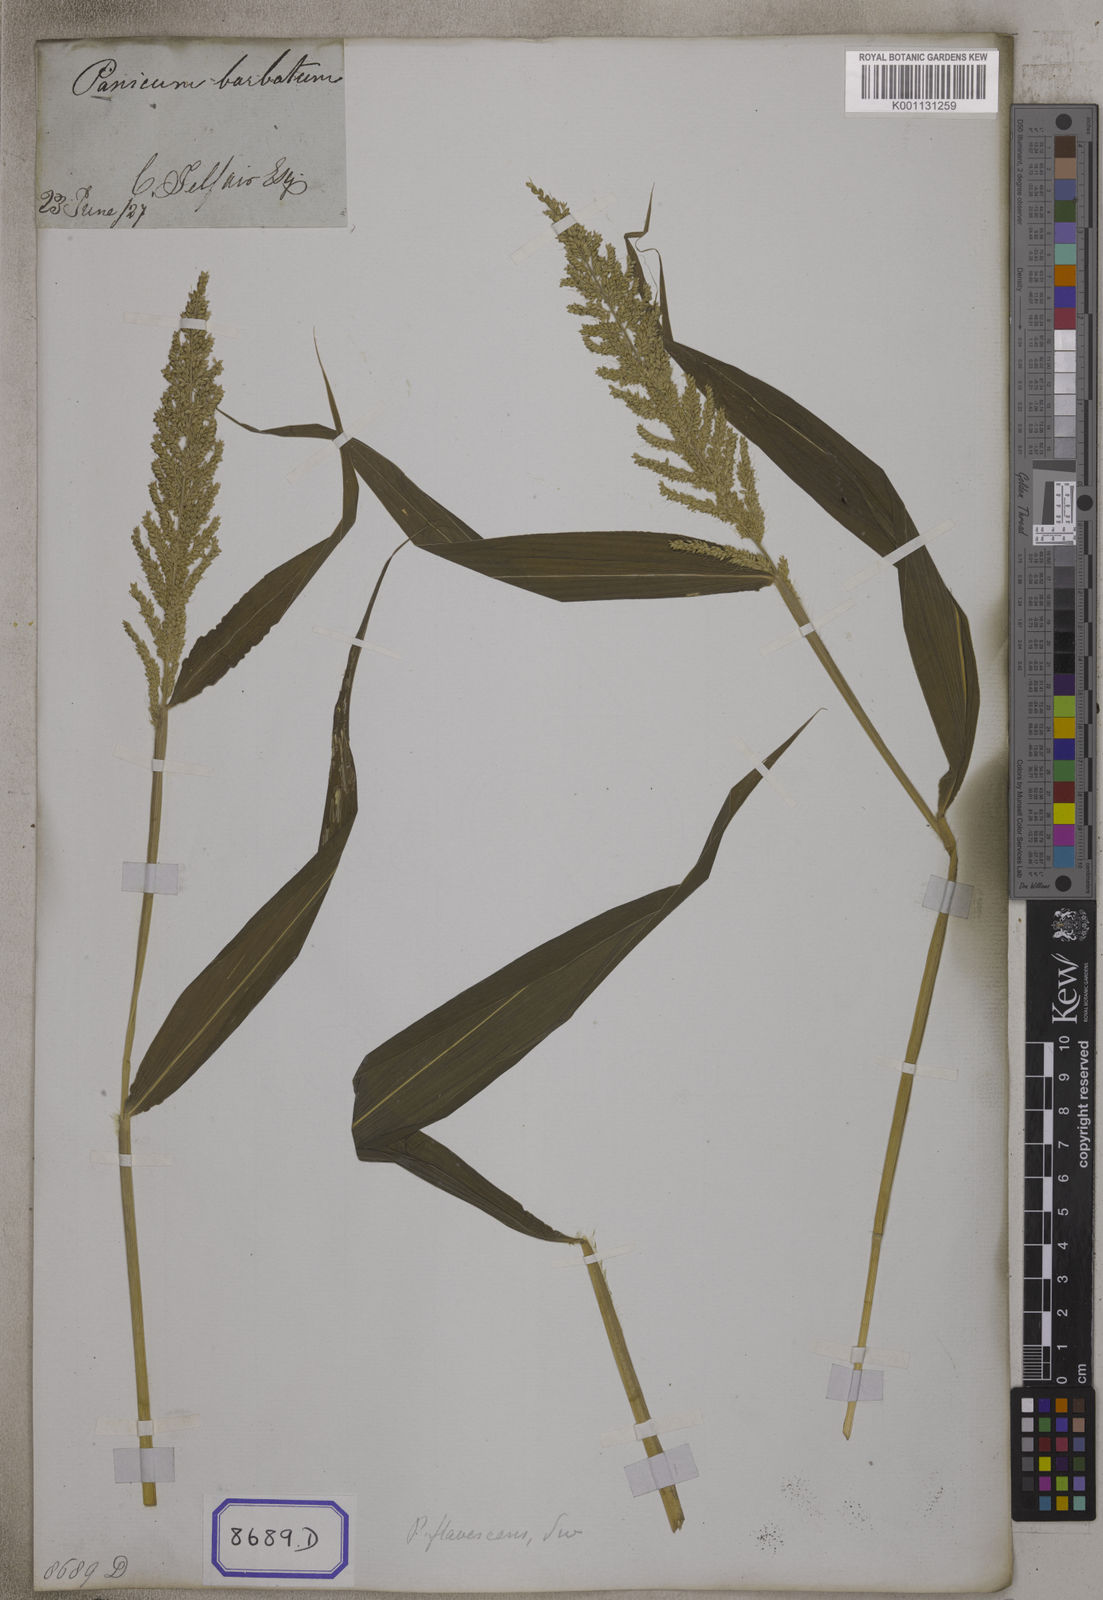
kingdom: Plantae
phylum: Tracheophyta
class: Liliopsida
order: Poales
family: Poaceae
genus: Setaria
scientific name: Setaria barbata
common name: East indian bristlegrass
